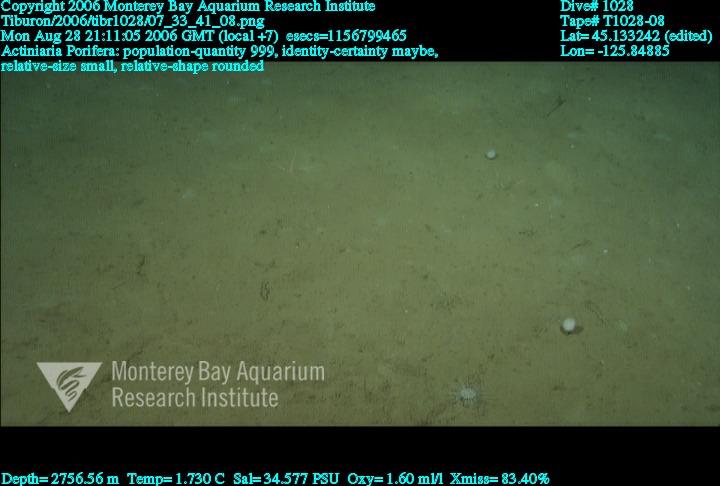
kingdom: Animalia
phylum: Porifera
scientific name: Porifera
